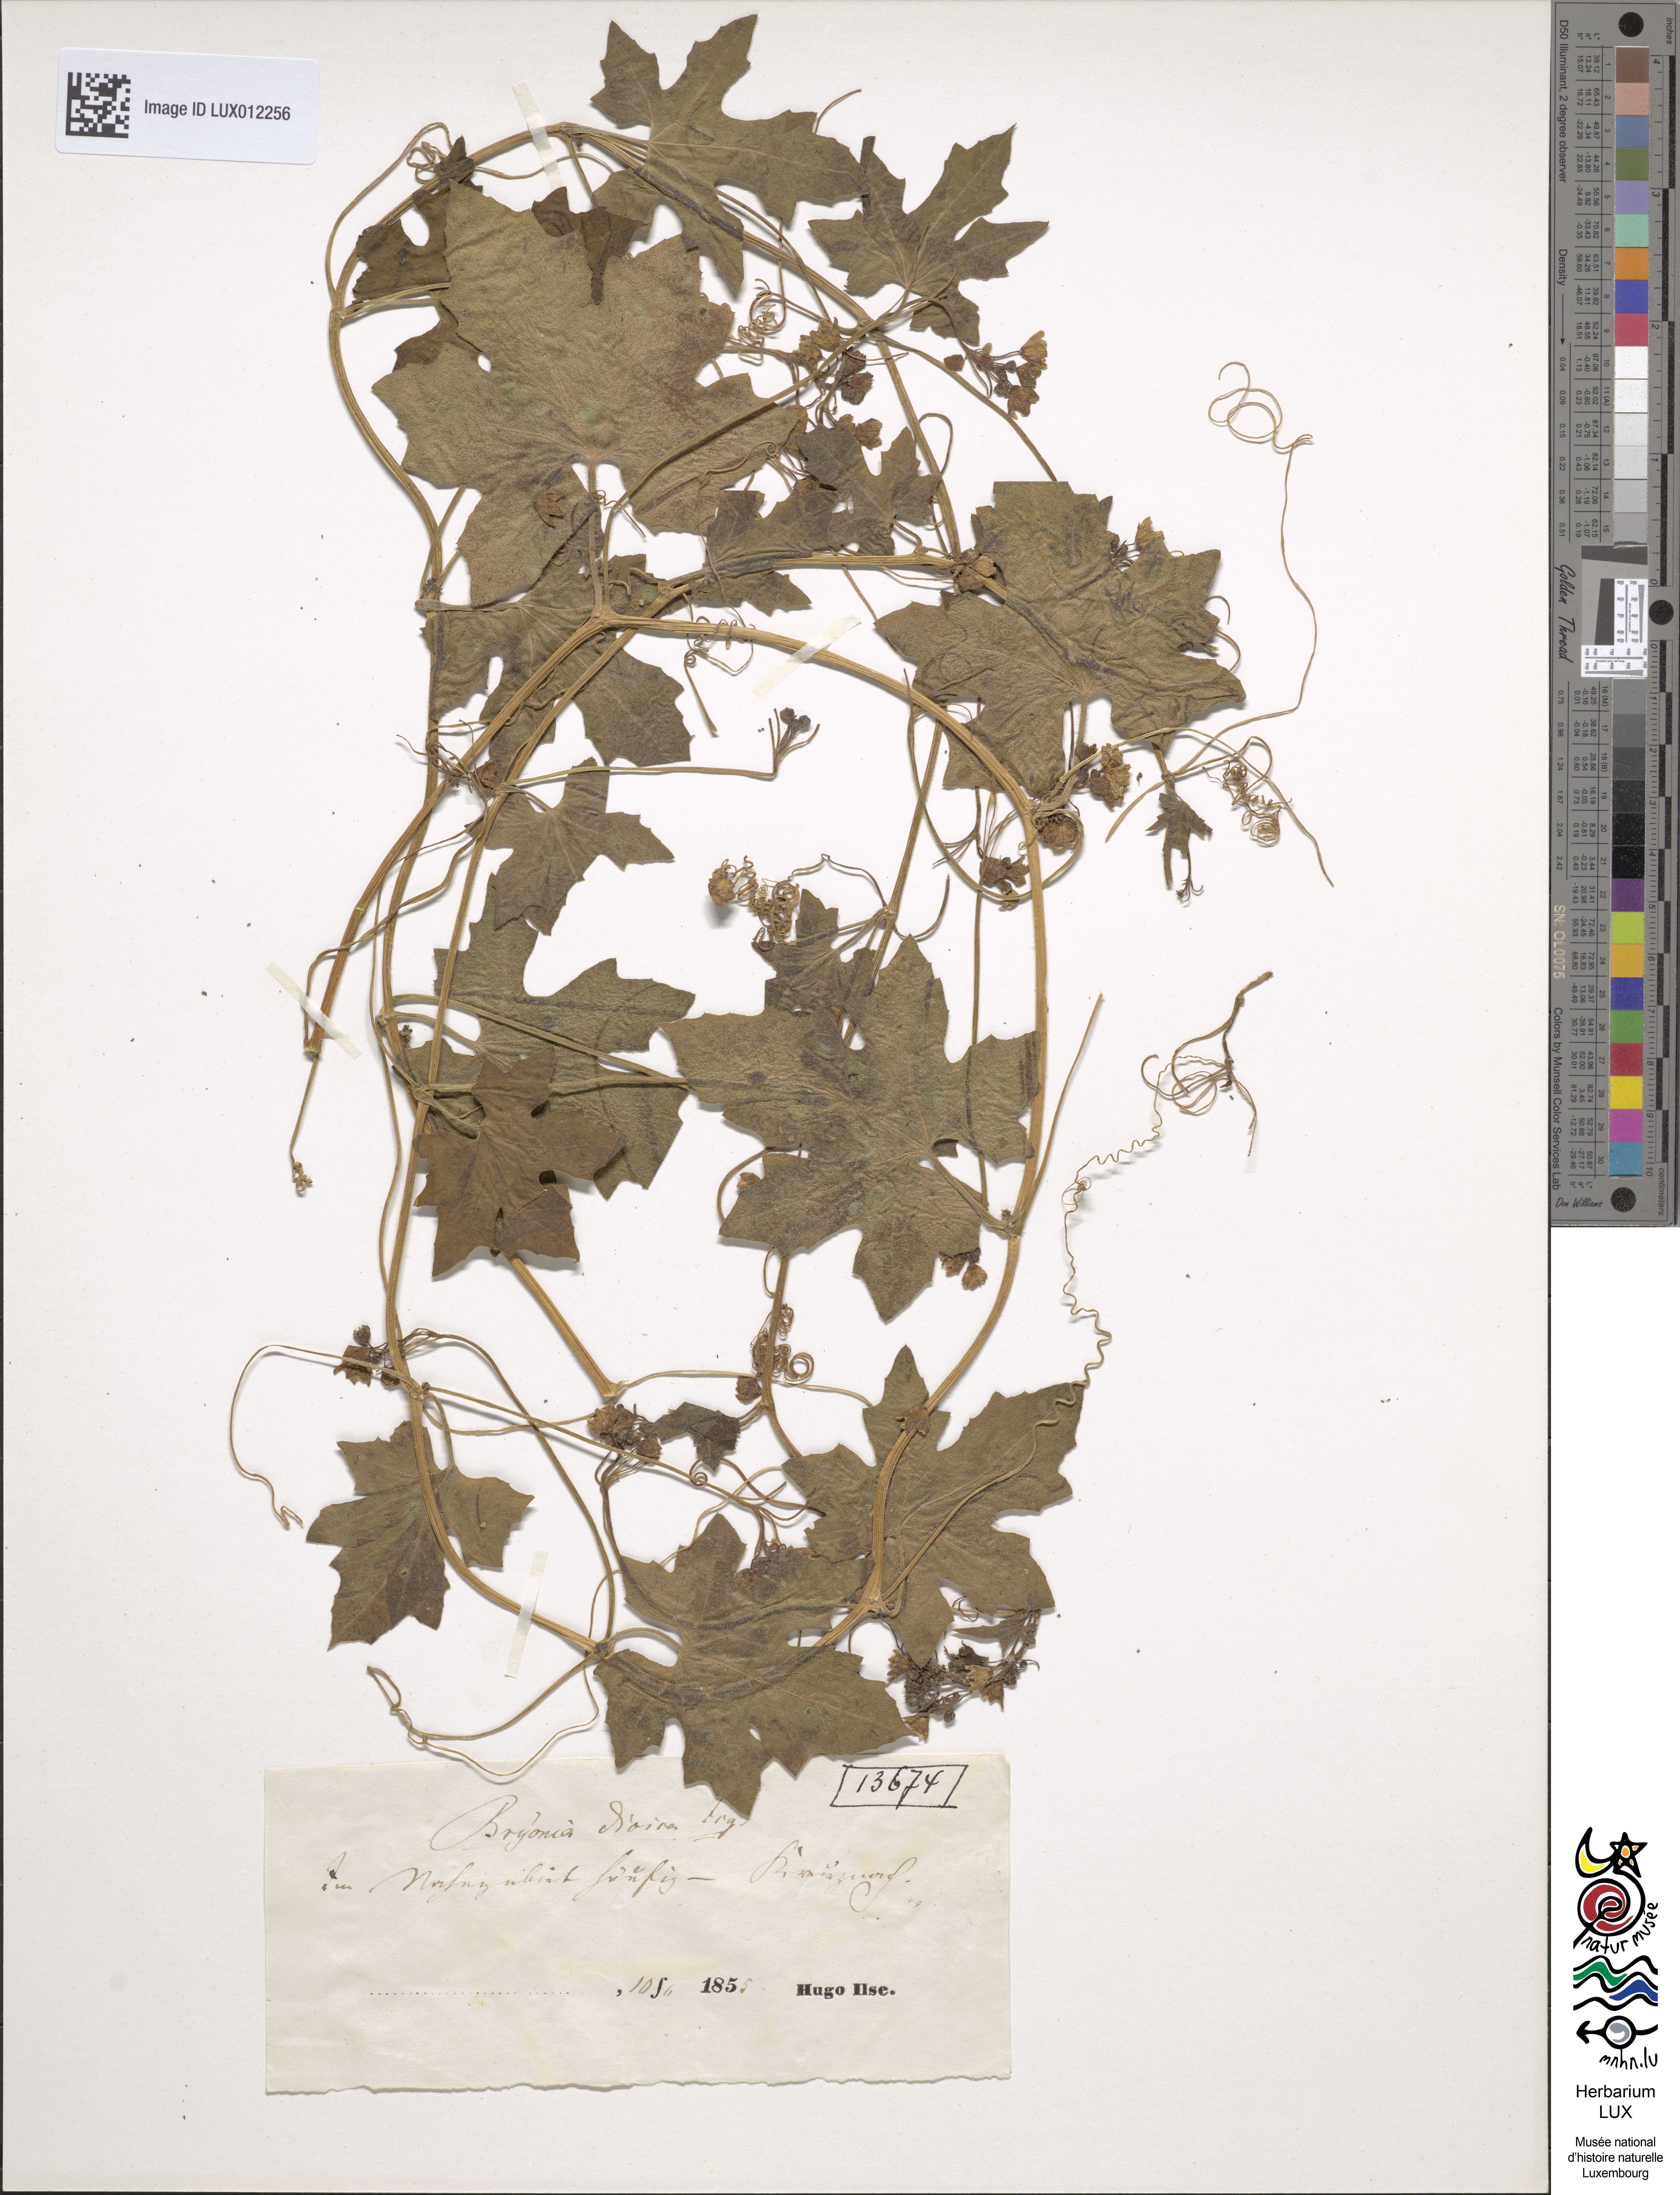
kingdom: Plantae
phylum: Tracheophyta
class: Magnoliopsida
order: Cucurbitales
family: Cucurbitaceae
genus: Bryonia
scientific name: Bryonia dioica
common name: White bryony
